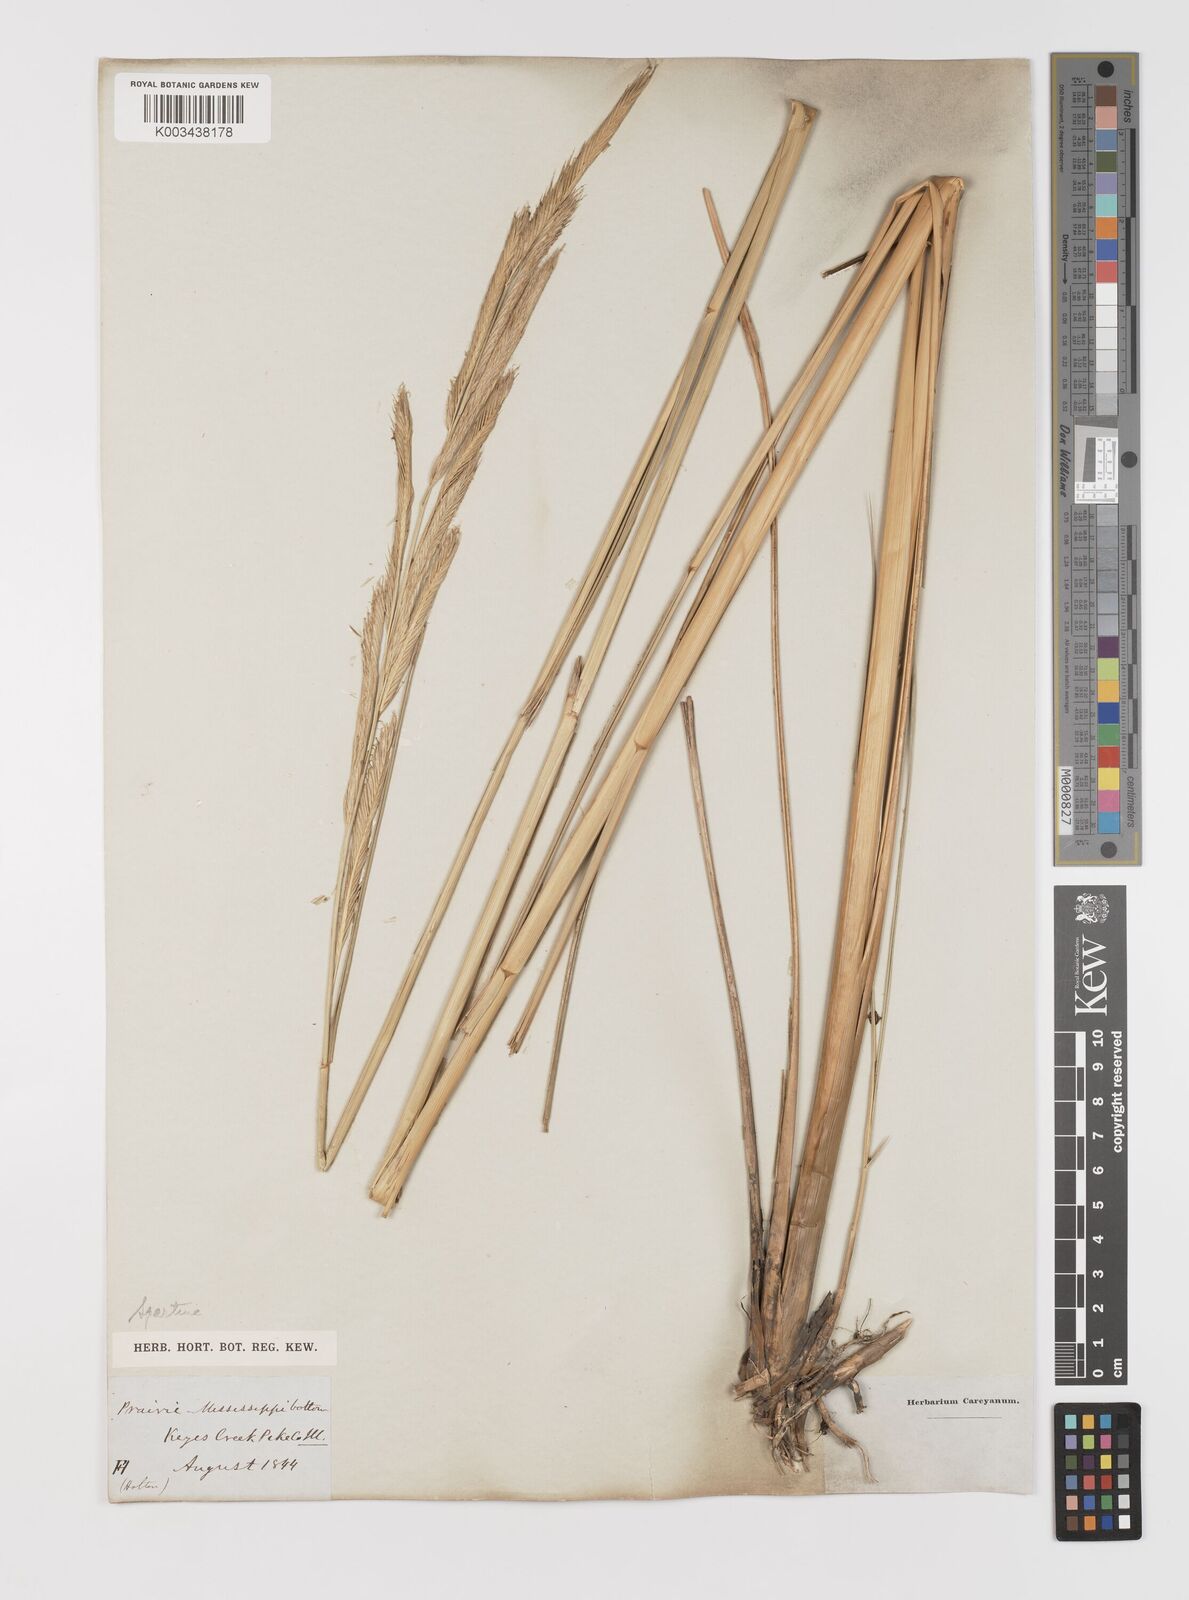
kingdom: Animalia
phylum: Mollusca
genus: Spartina
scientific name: Spartina
